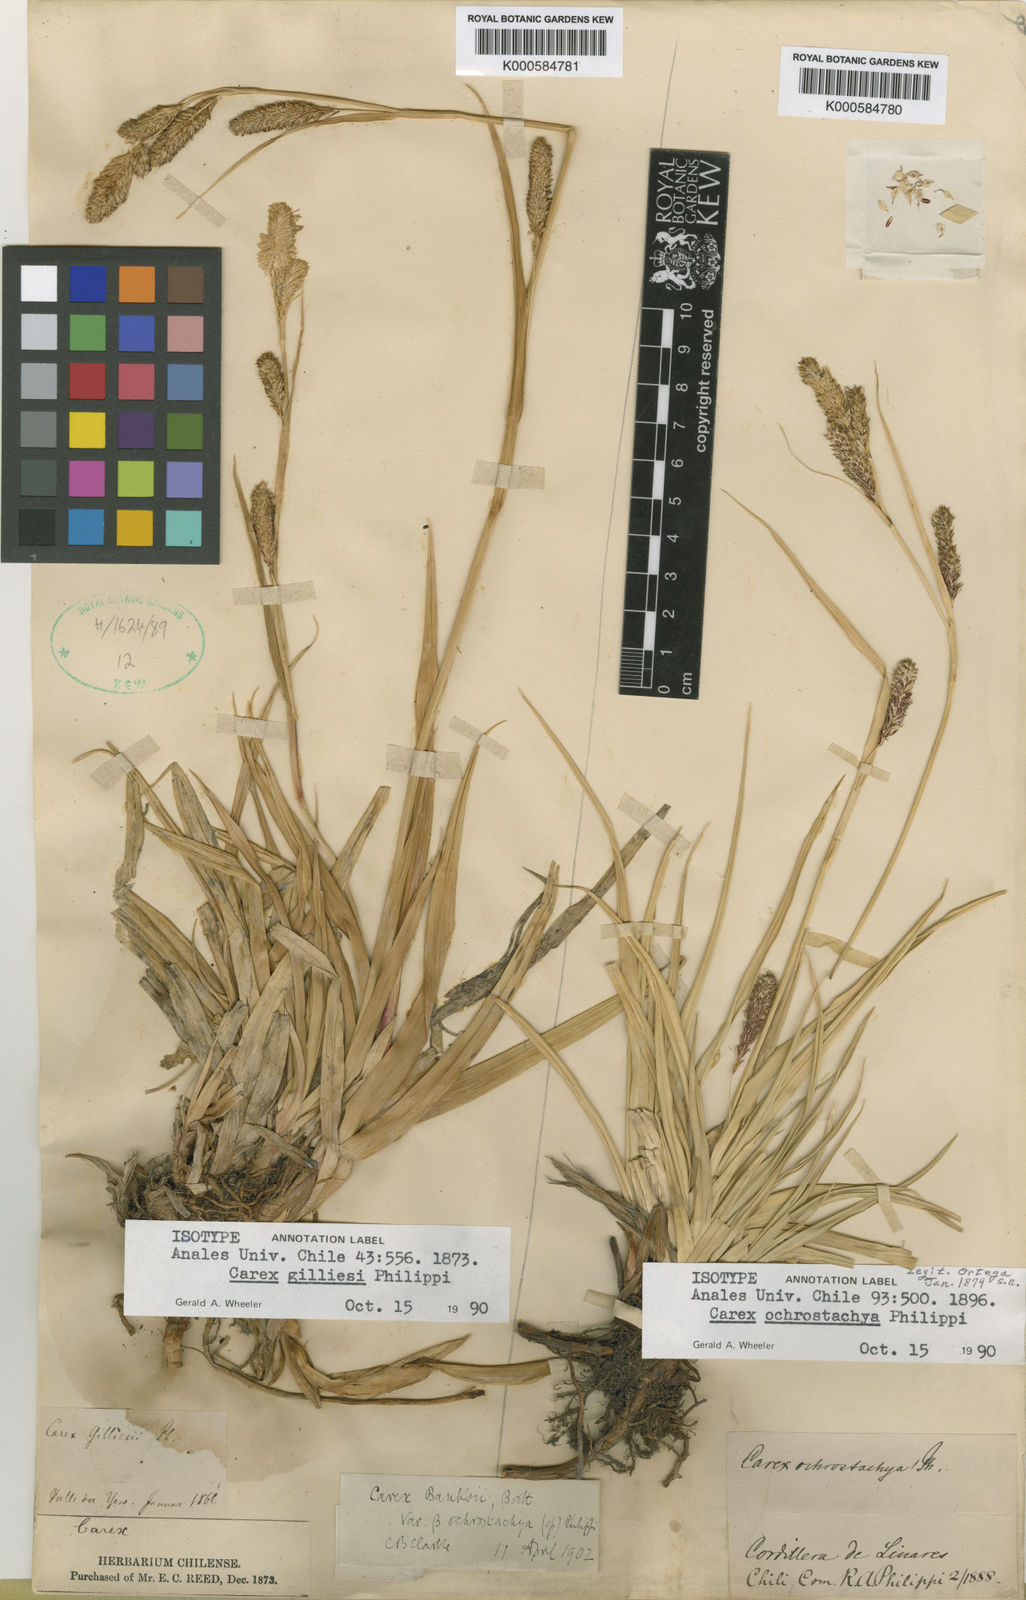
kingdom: Plantae
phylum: Tracheophyta
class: Liliopsida
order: Poales
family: Cyperaceae
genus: Carex
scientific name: Carex banksii
